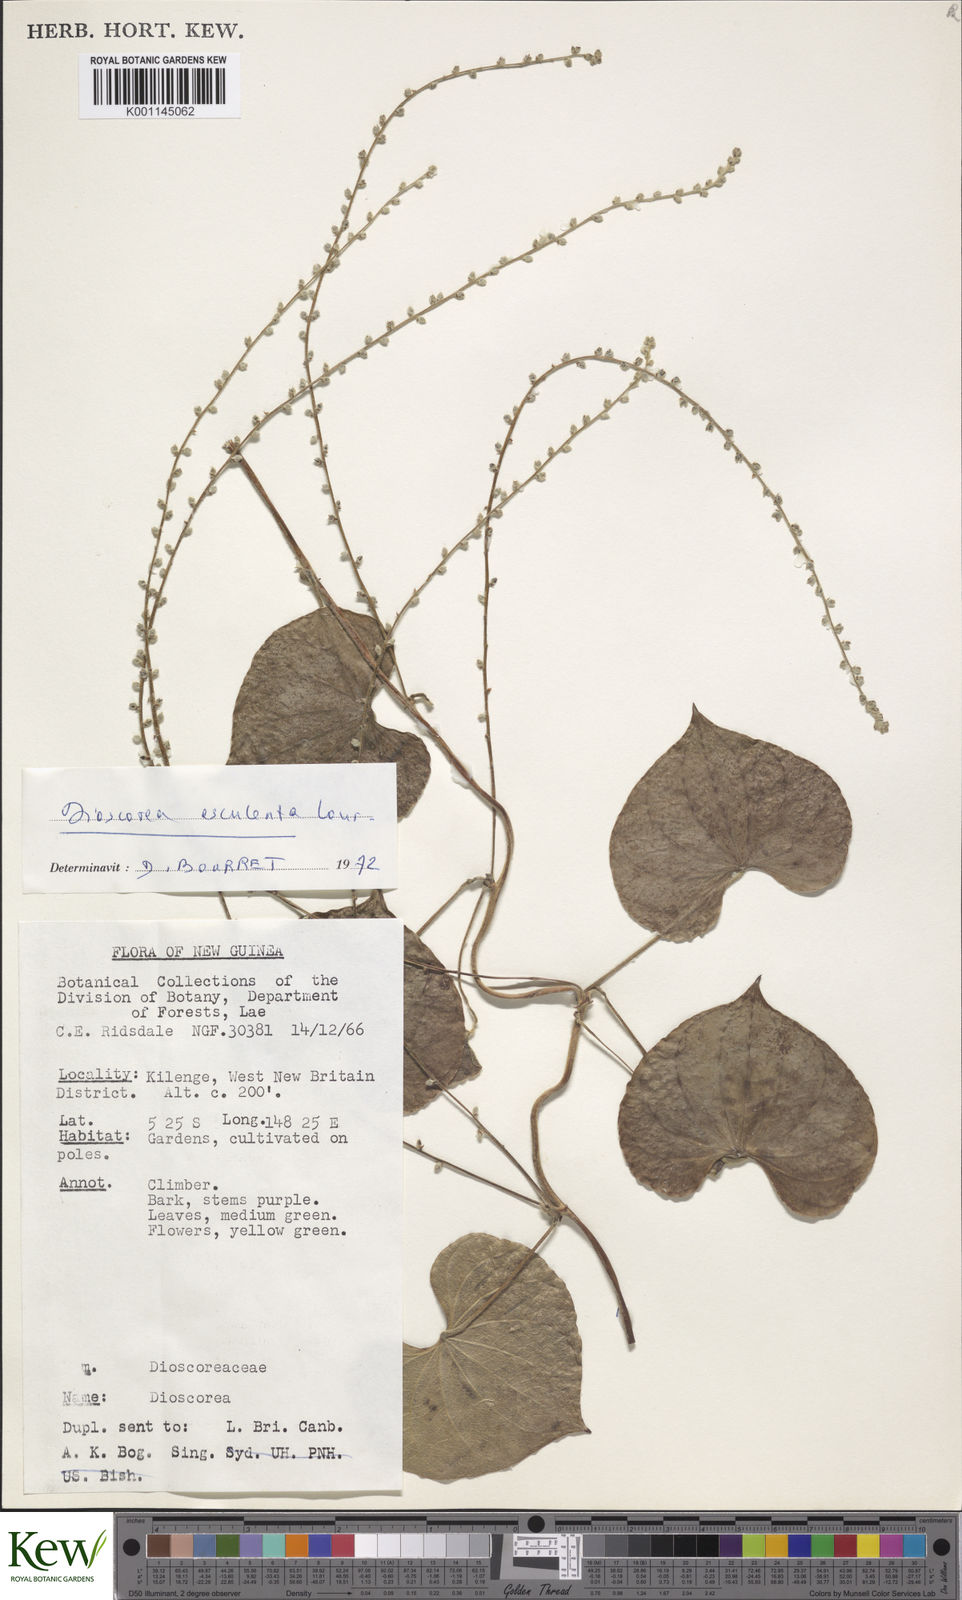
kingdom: Plantae
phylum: Tracheophyta
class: Liliopsida
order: Dioscoreales
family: Dioscoreaceae
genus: Dioscorea
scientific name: Dioscorea
